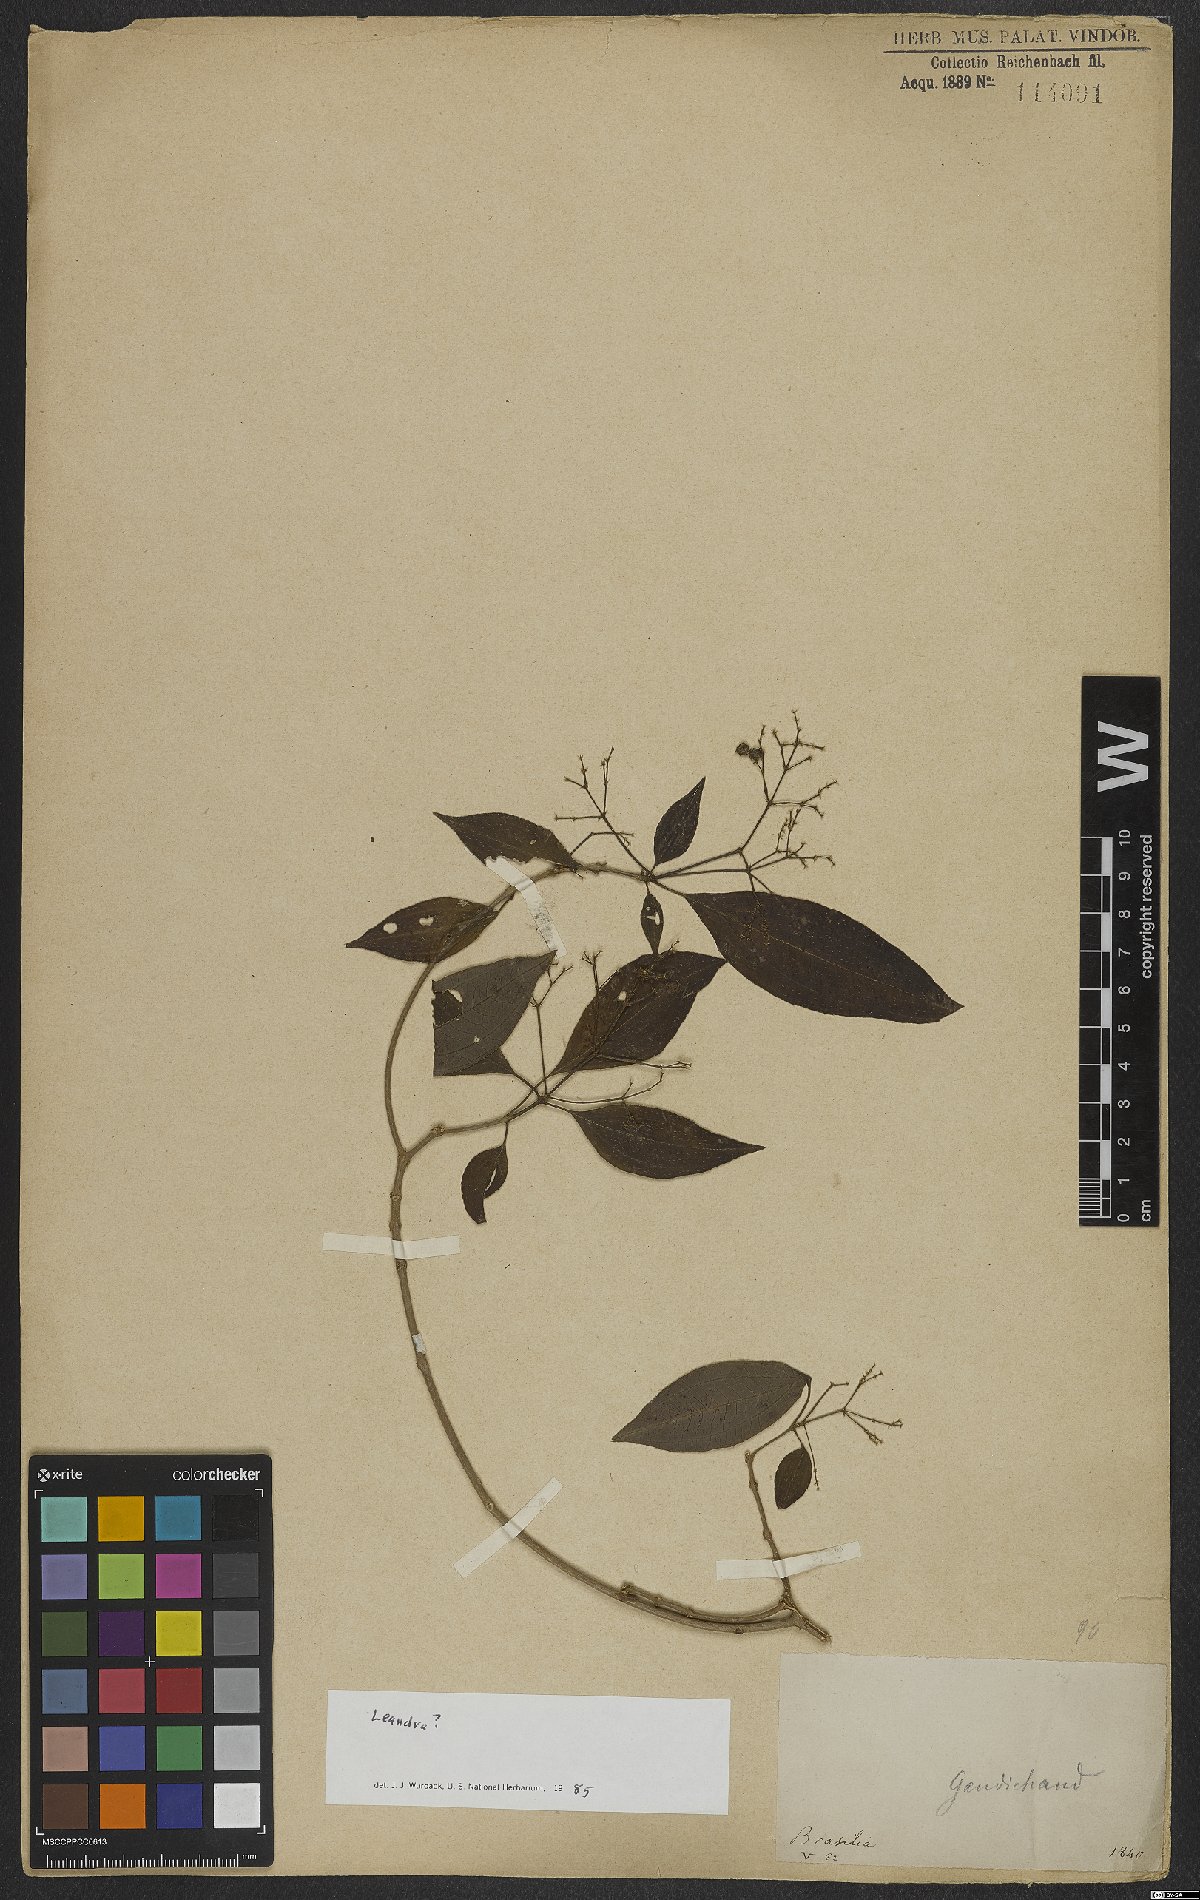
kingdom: Plantae
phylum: Tracheophyta
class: Magnoliopsida
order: Myrtales
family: Melastomataceae
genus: Miconia
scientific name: Miconia
